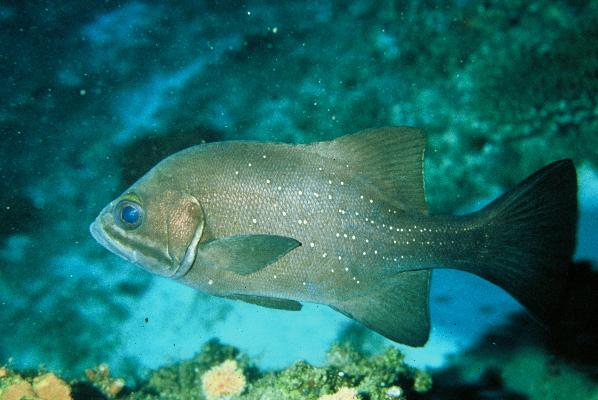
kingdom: Animalia
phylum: Chordata
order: Perciformes
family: Dinopercidae
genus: Dinoperca
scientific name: Dinoperca petersi
